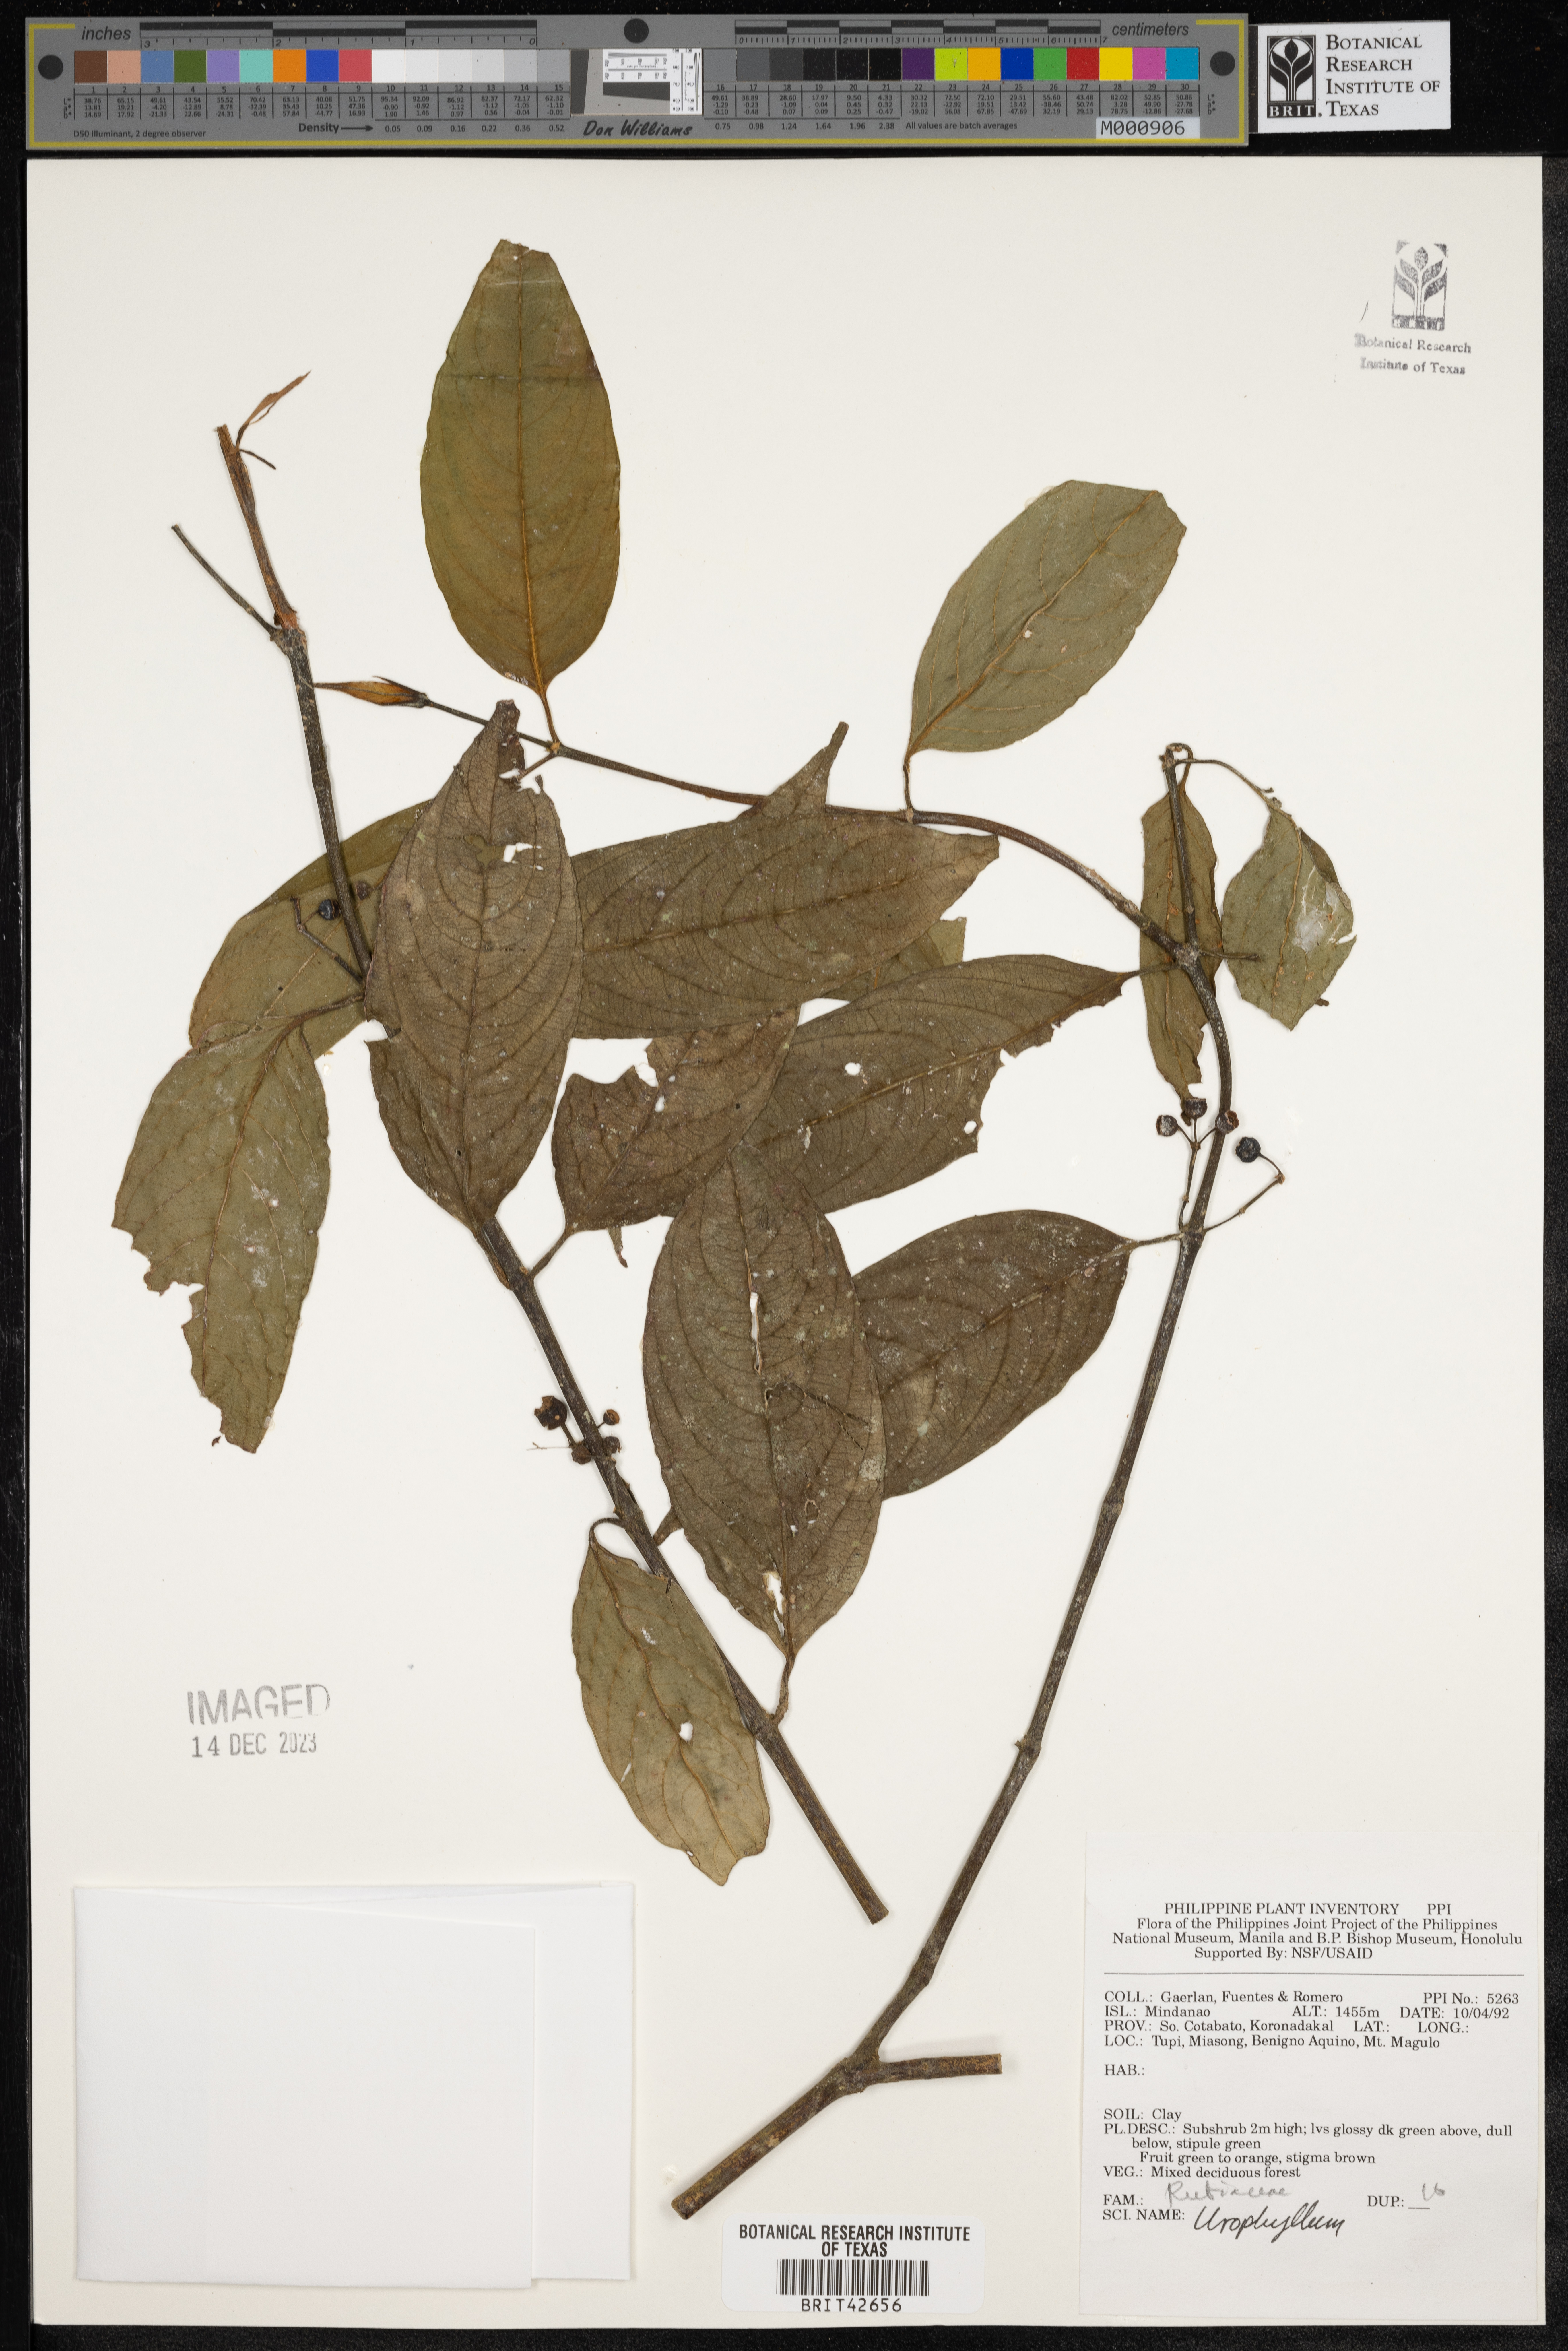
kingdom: Plantae
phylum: Tracheophyta
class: Magnoliopsida
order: Gentianales
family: Rubiaceae
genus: Urophyllum
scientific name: Urophyllum
